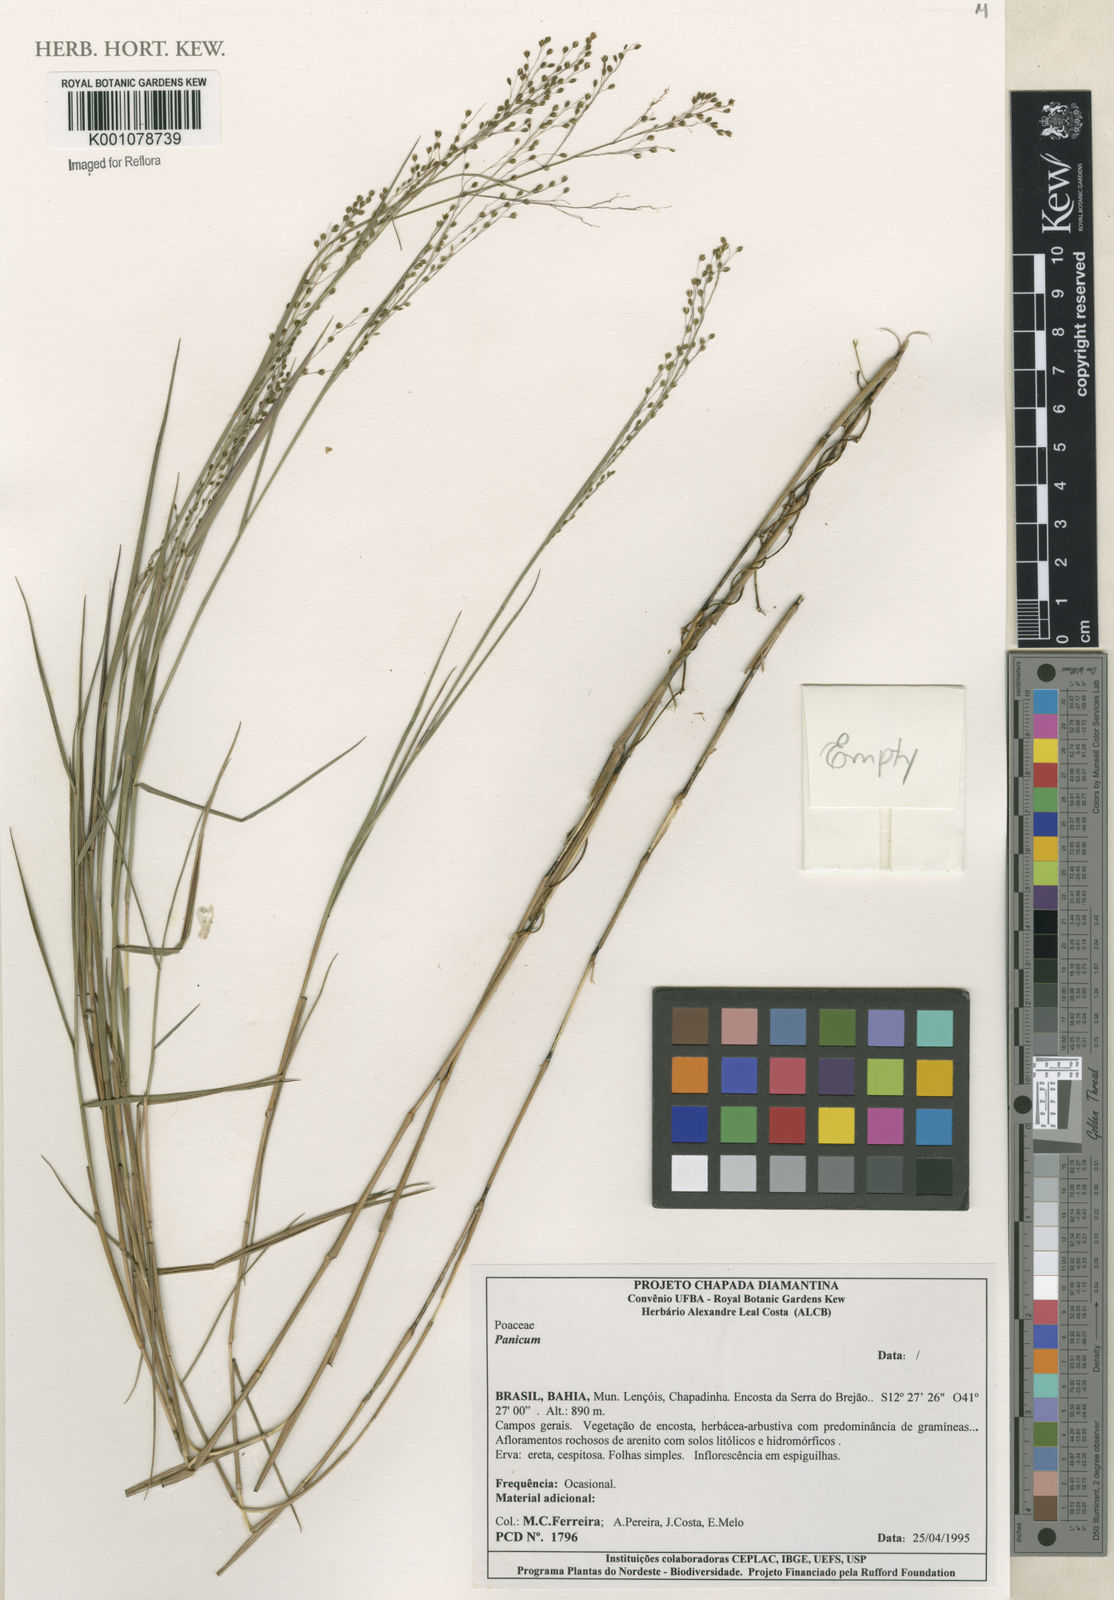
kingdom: Plantae
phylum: Tracheophyta
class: Liliopsida
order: Poales
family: Poaceae
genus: Panicum
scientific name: Panicum
